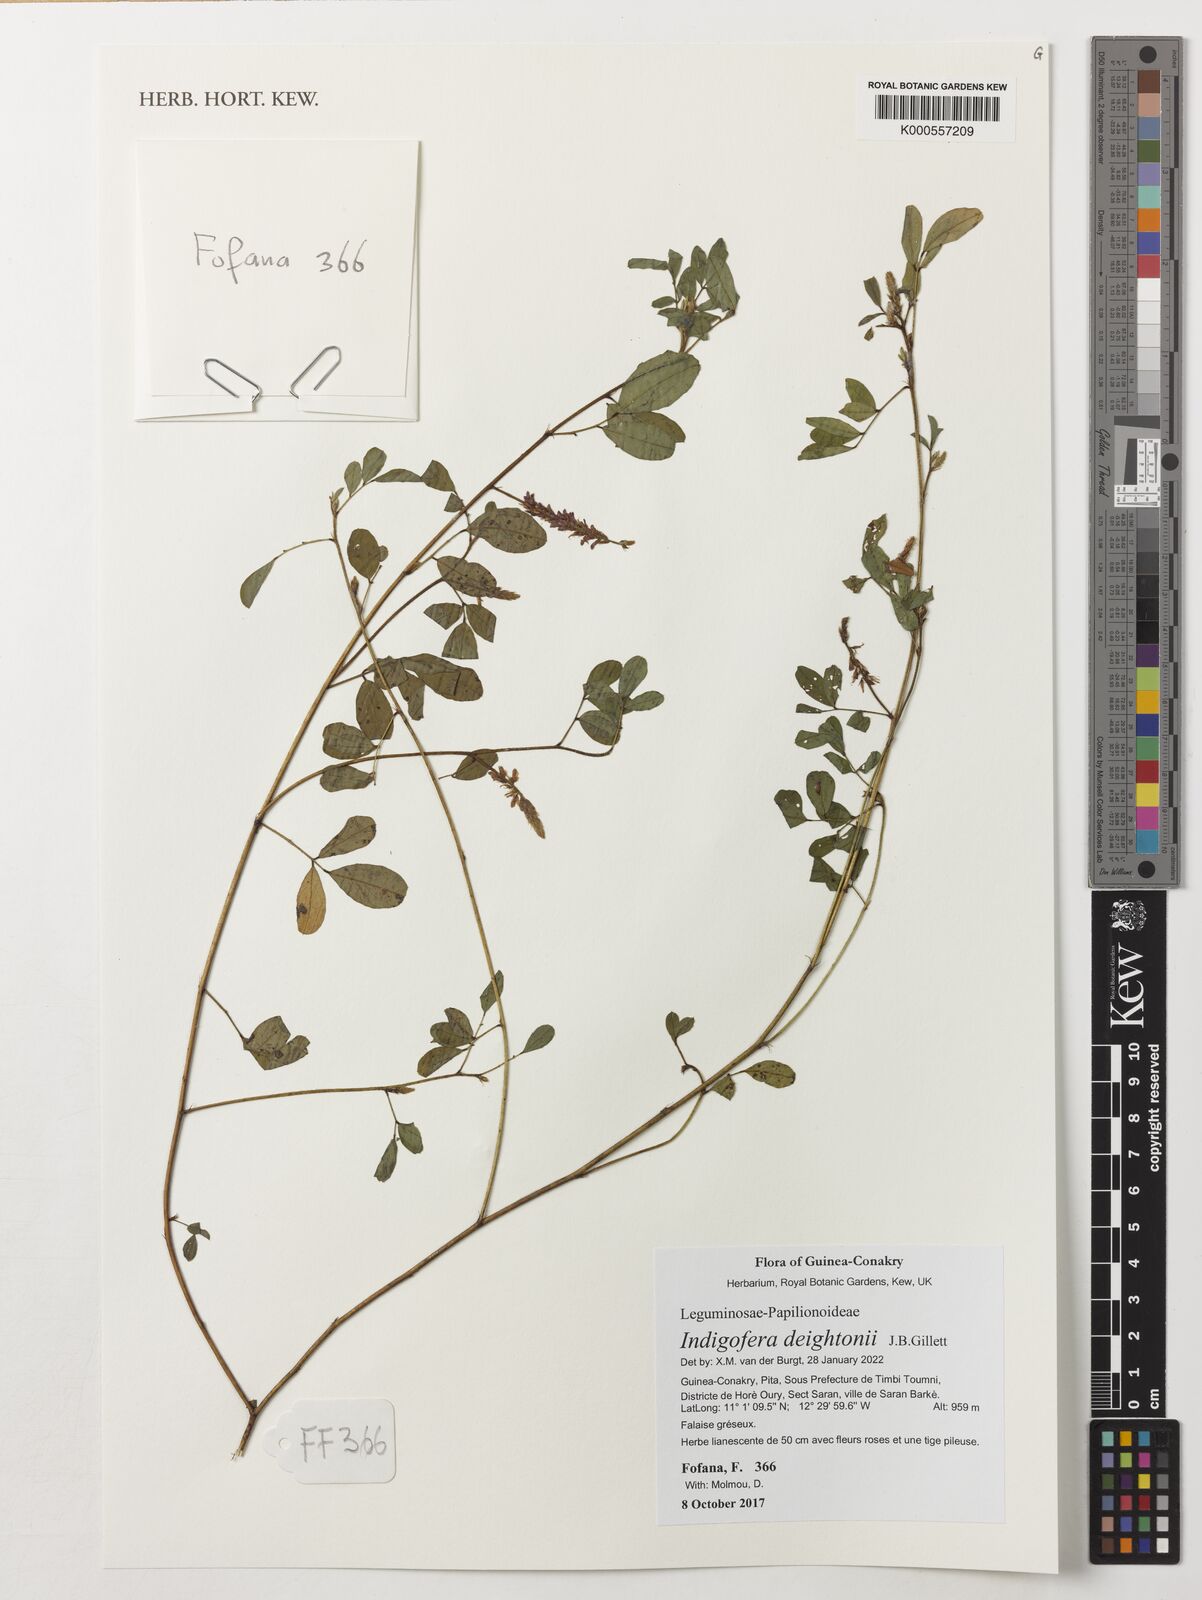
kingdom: Plantae
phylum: Tracheophyta
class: Magnoliopsida
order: Fabales
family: Fabaceae
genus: Indigofera
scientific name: Indigofera deightonii
